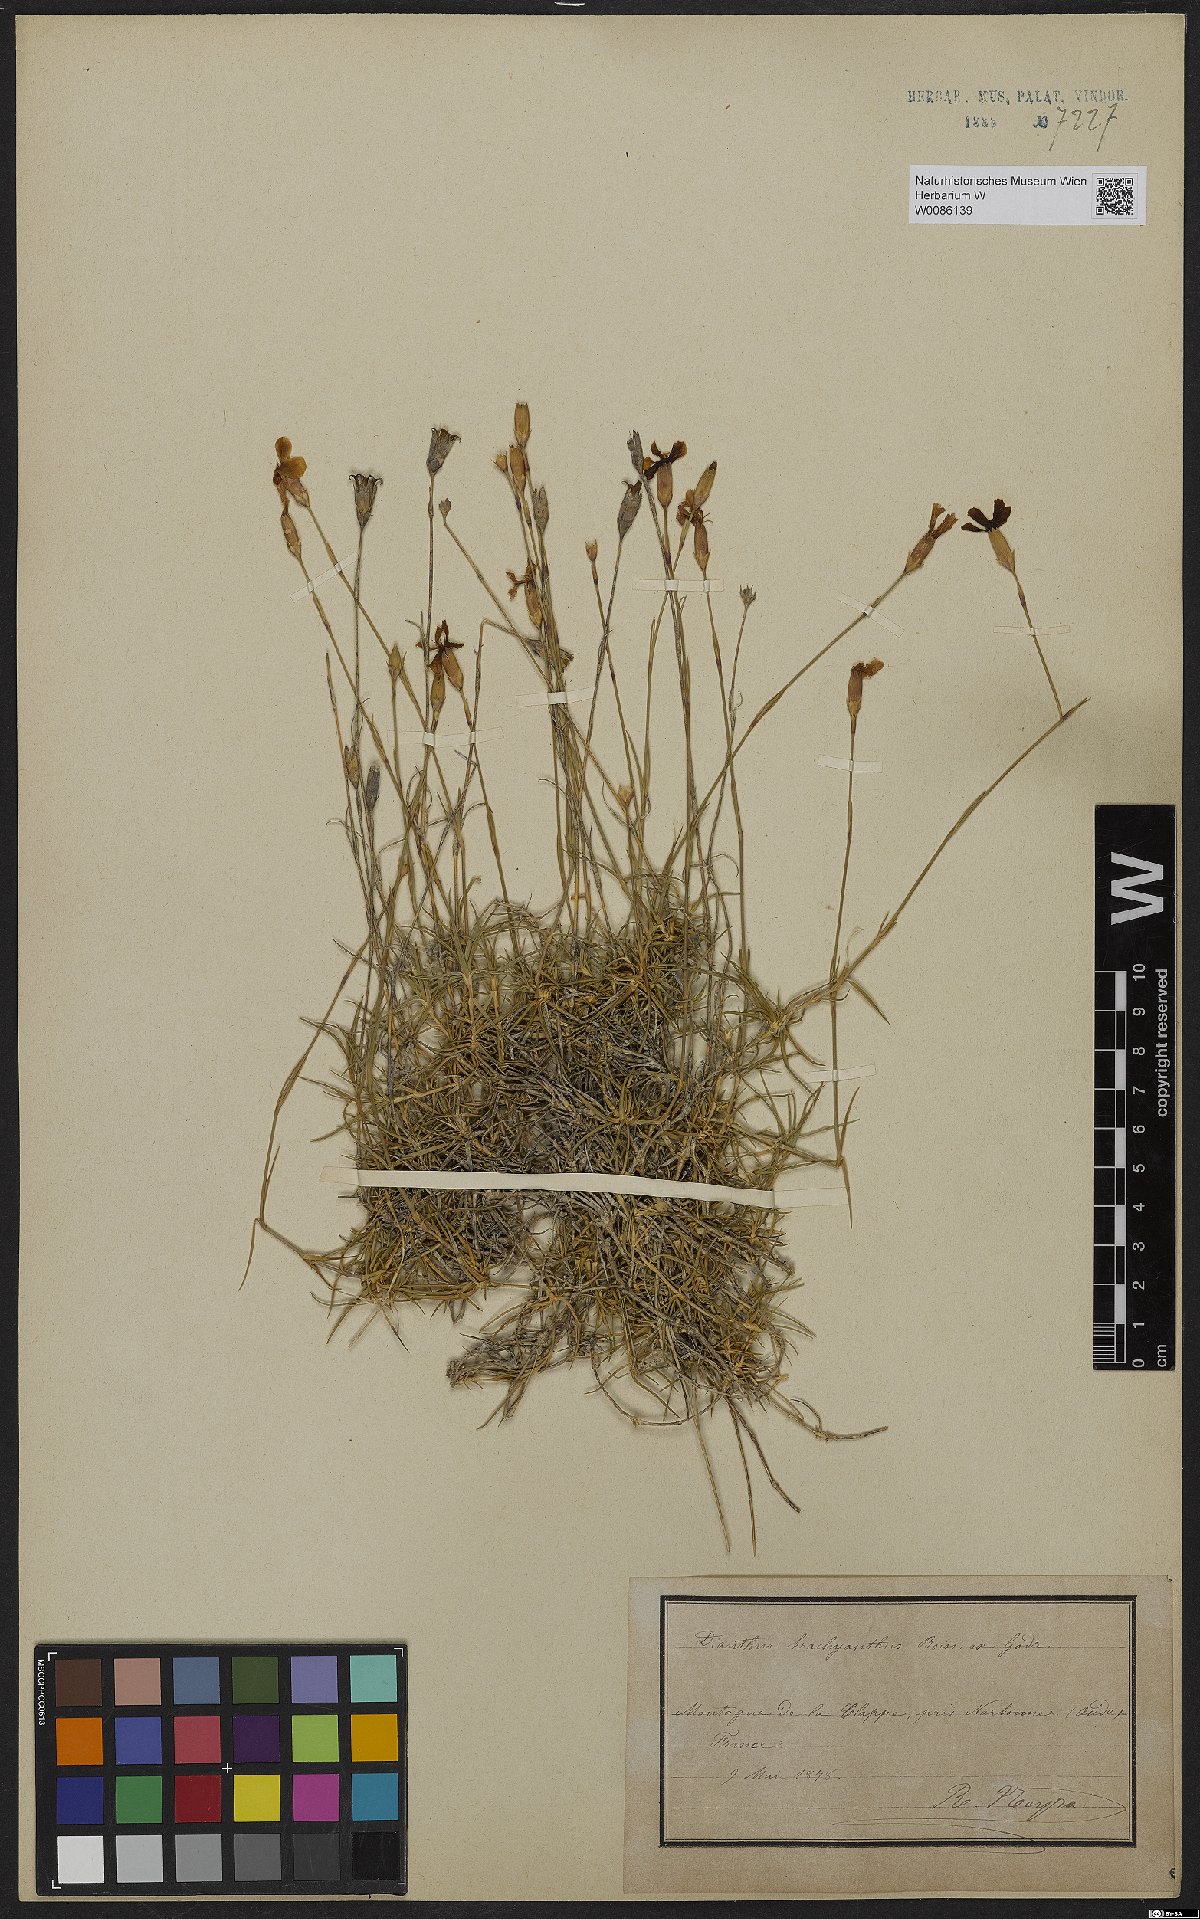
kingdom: Plantae
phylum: Tracheophyta
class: Magnoliopsida
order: Caryophyllales
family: Caryophyllaceae
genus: Dianthus
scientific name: Dianthus pungens
